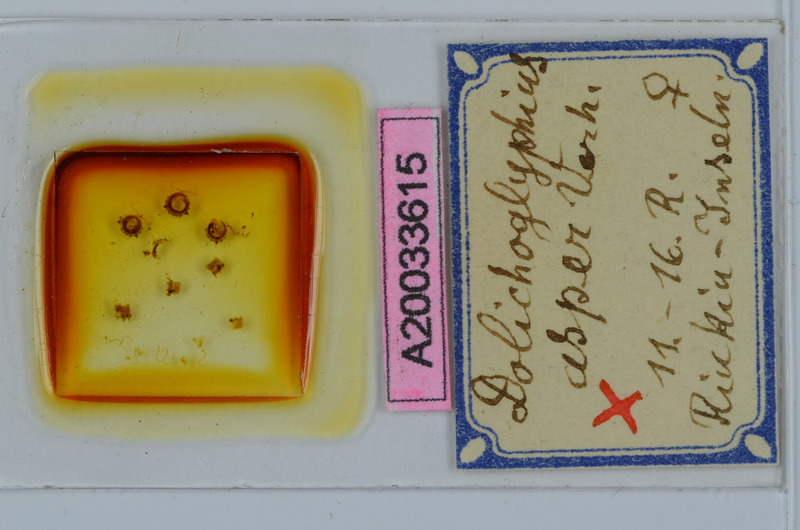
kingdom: Animalia
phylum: Arthropoda
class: Diplopoda
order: Spirostreptida
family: Cambalopsidae
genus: Dolichoglyphius
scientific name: Dolichoglyphius asper
